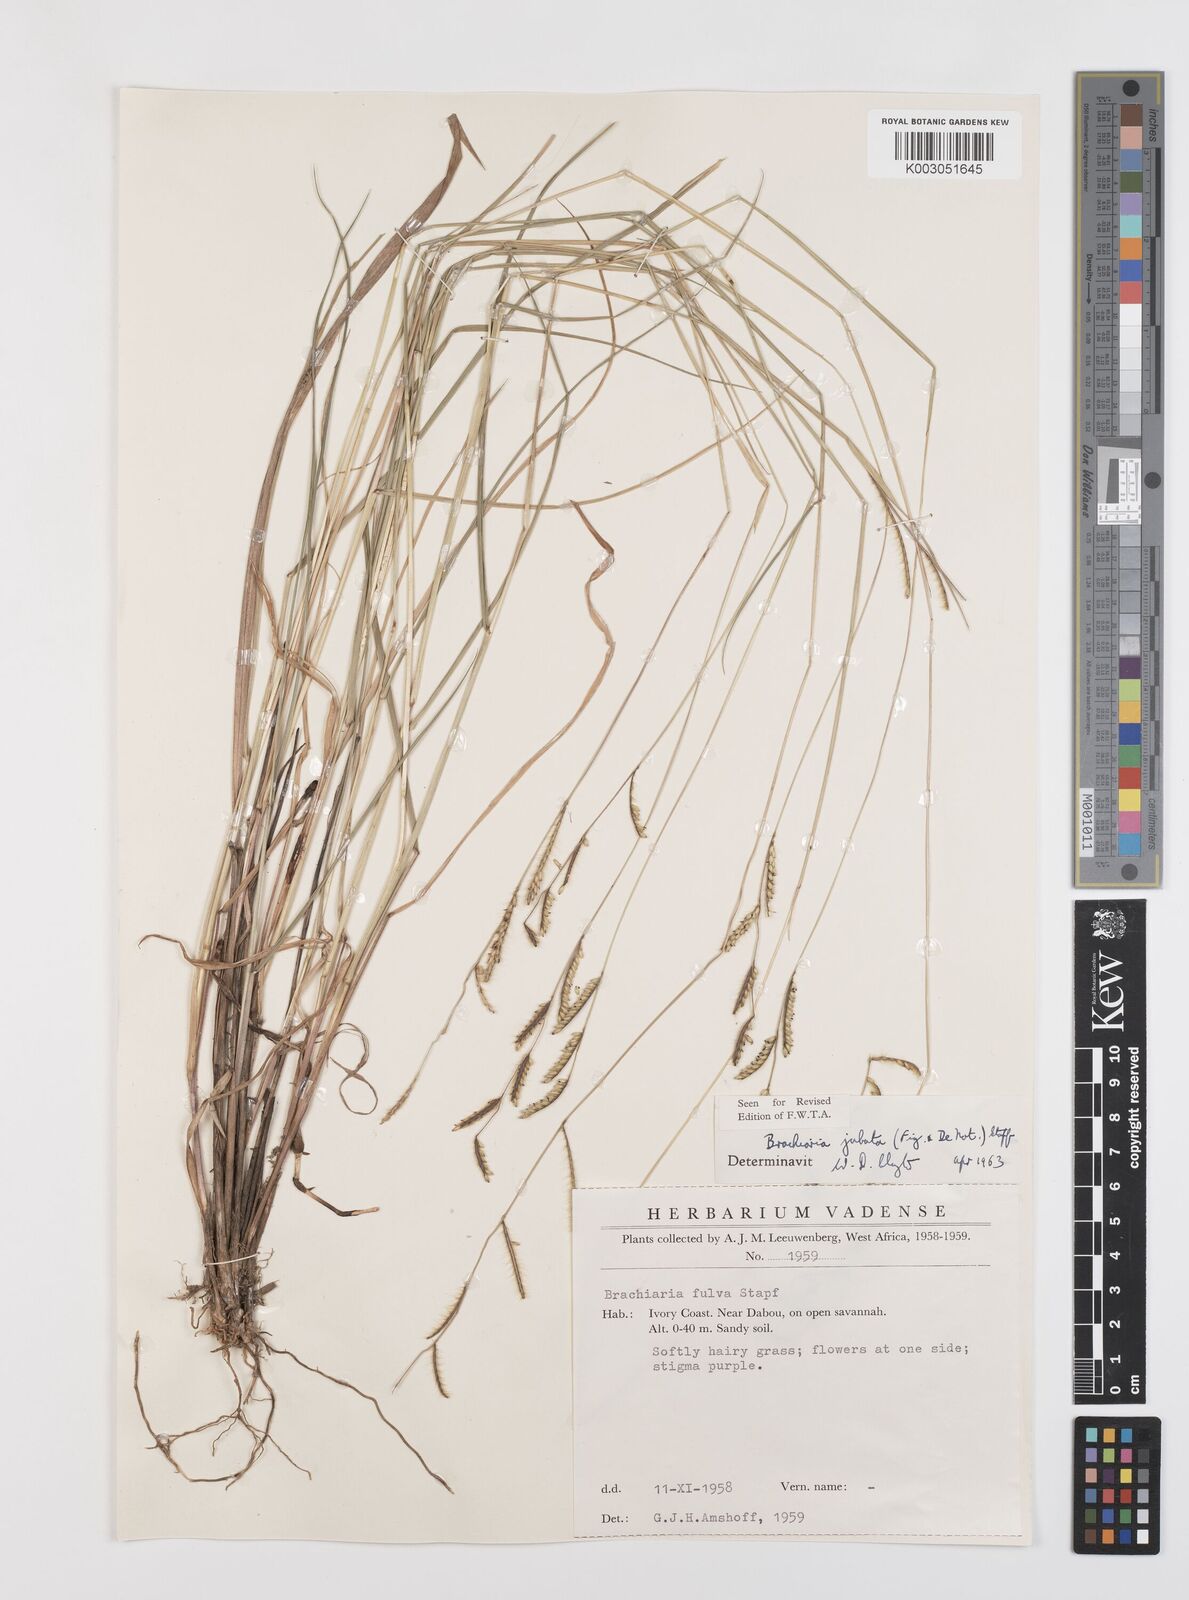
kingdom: Plantae
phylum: Tracheophyta
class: Liliopsida
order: Poales
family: Poaceae
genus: Urochloa
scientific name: Urochloa jubata
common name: Buffalograss
